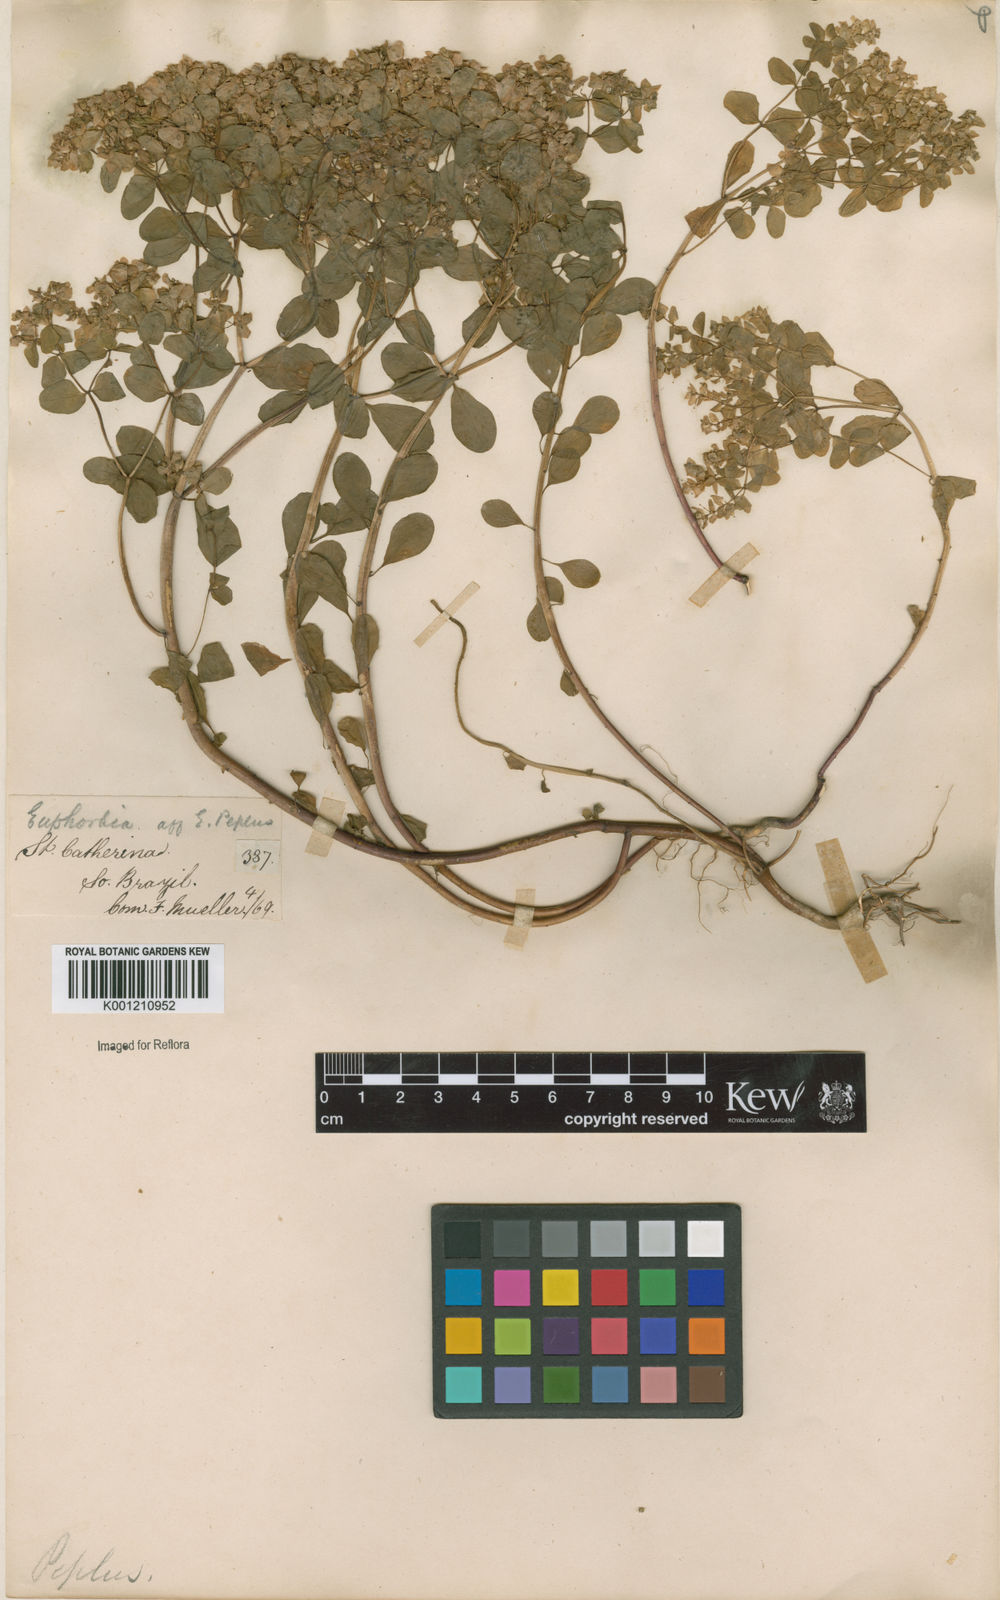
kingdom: Plantae
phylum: Tracheophyta
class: Magnoliopsida
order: Malpighiales
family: Euphorbiaceae
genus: Euphorbia
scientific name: Euphorbia peplus
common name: Petty spurge
